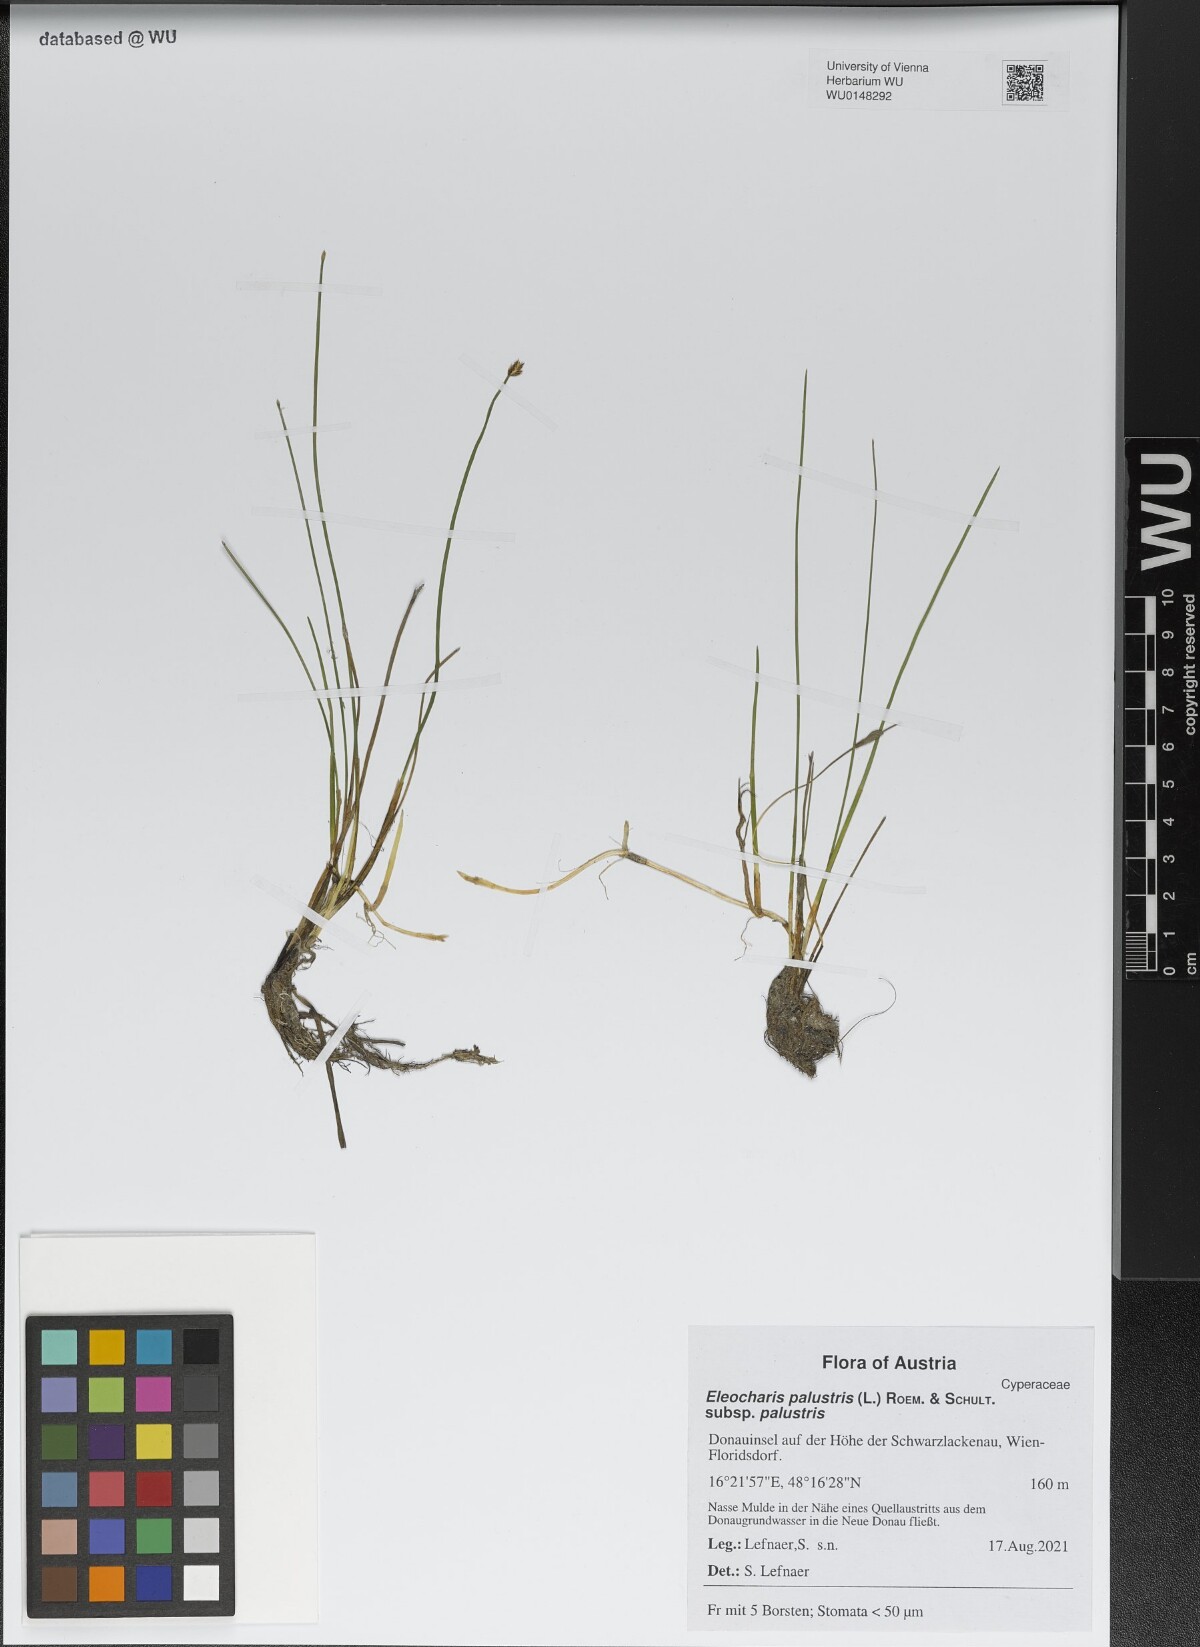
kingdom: Plantae
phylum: Tracheophyta
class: Liliopsida
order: Poales
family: Cyperaceae
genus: Eleocharis
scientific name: Eleocharis palustris
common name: Common spike-rush
